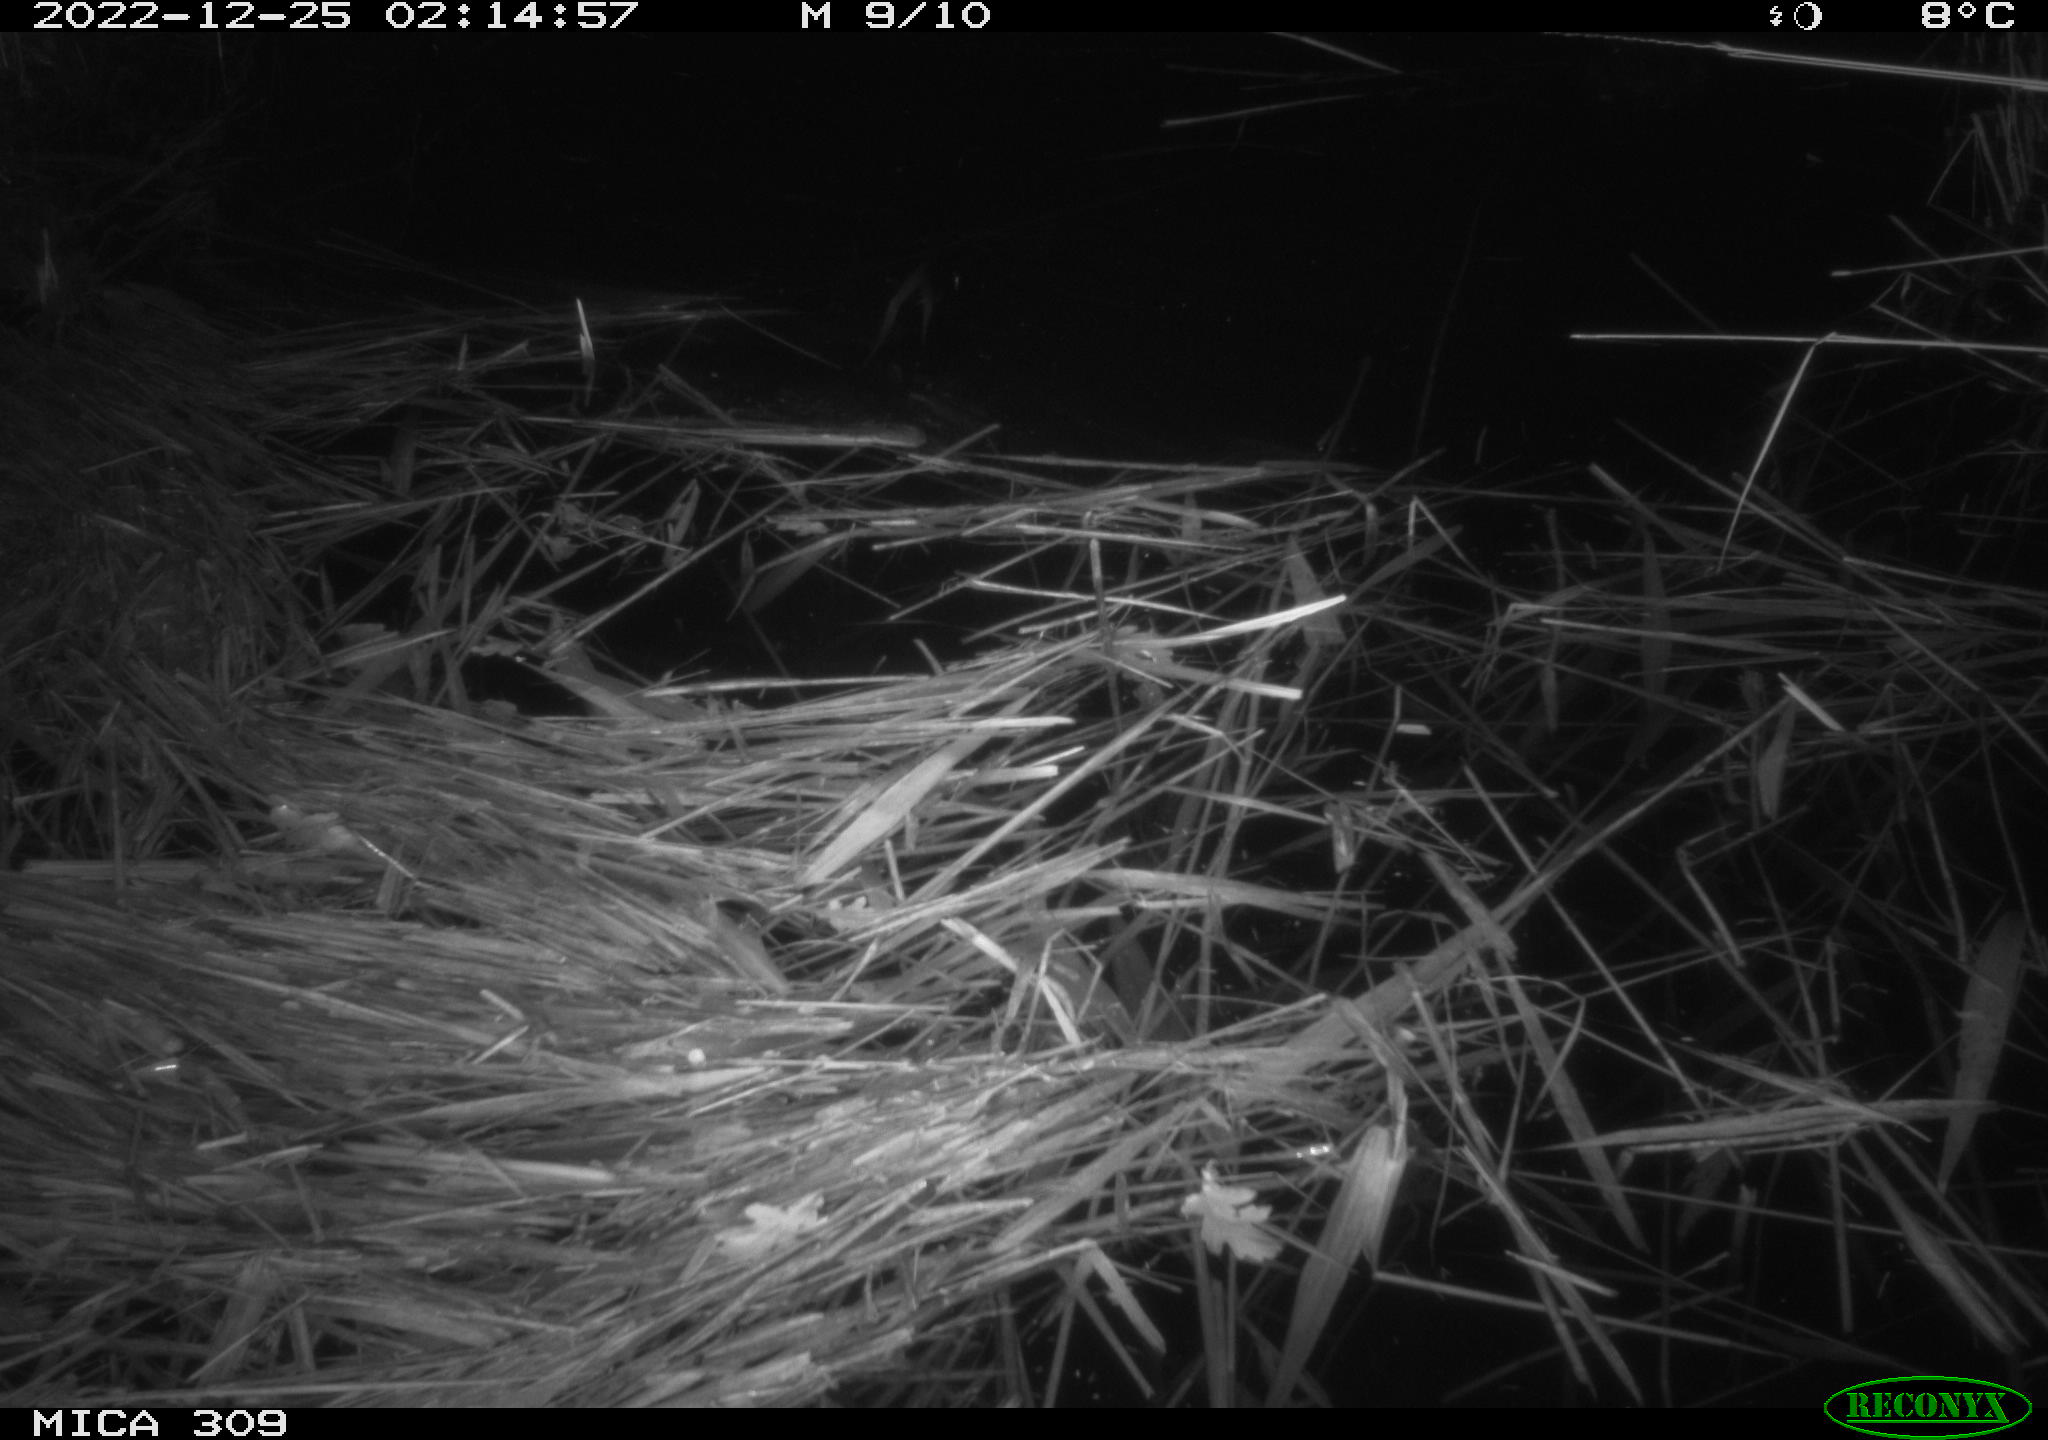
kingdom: Animalia
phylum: Chordata
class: Mammalia
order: Rodentia
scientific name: Rodentia
